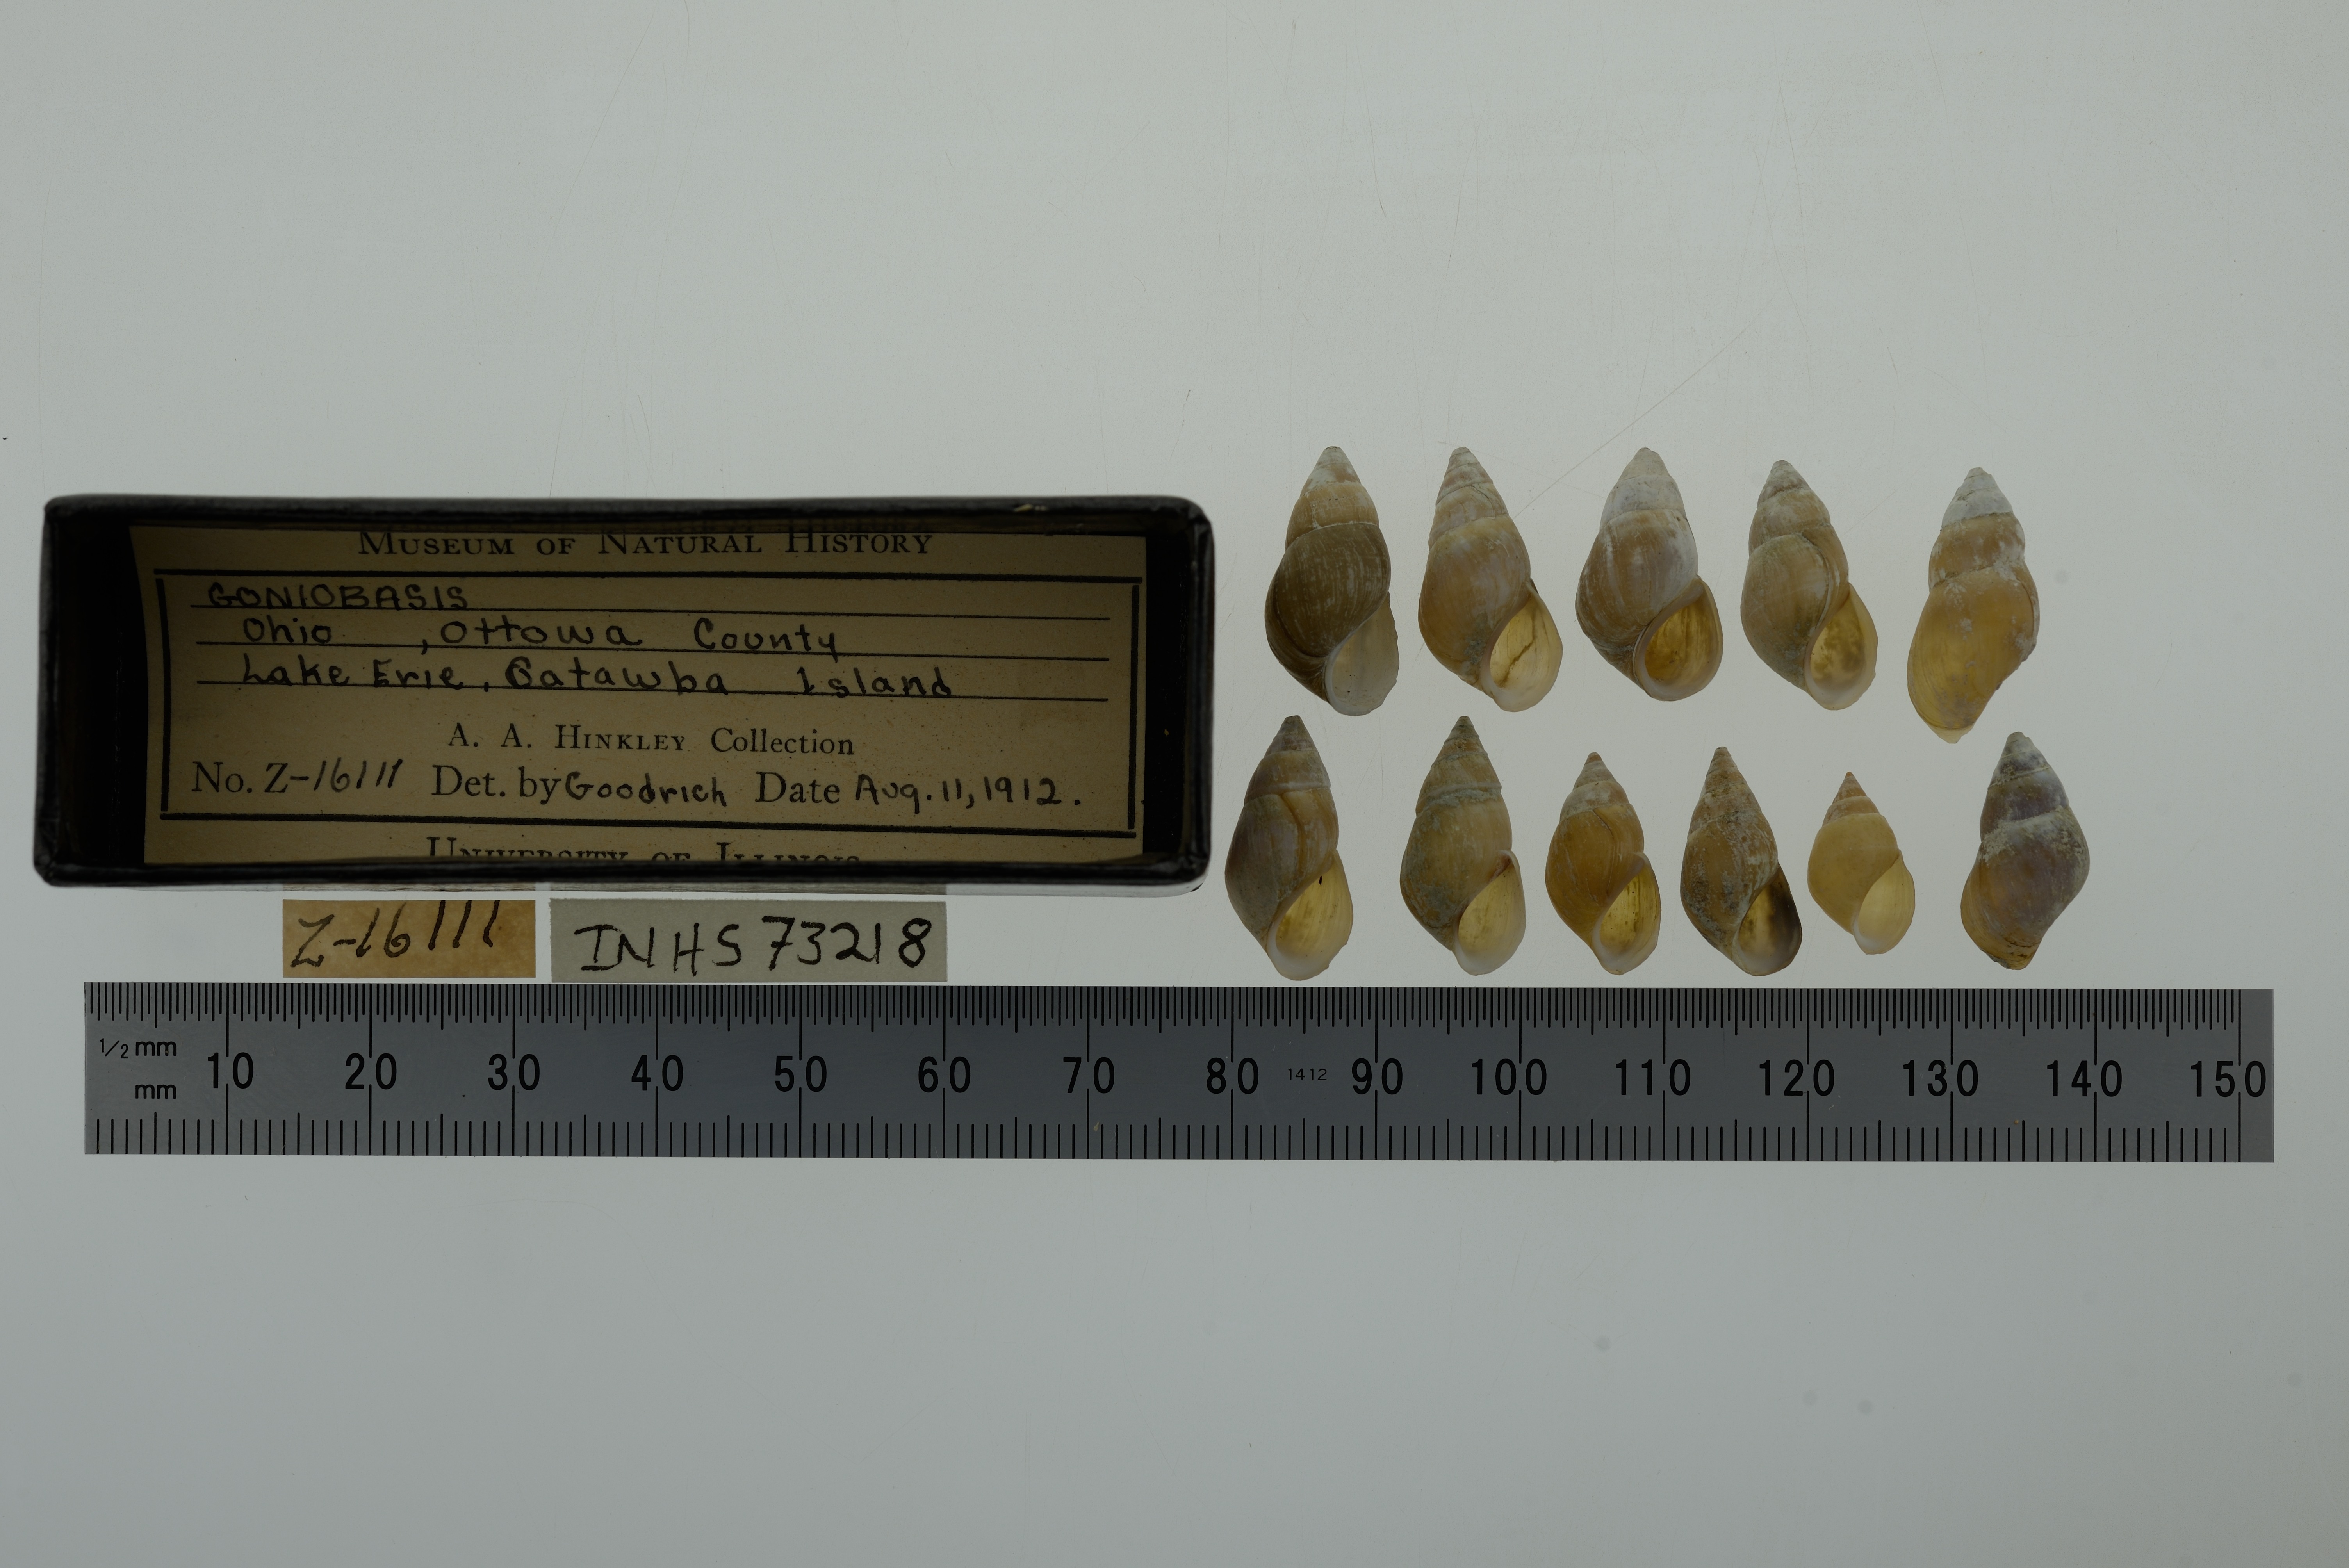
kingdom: Animalia
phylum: Mollusca
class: Gastropoda
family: Pleuroceridae
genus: Elimia
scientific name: Elimia
